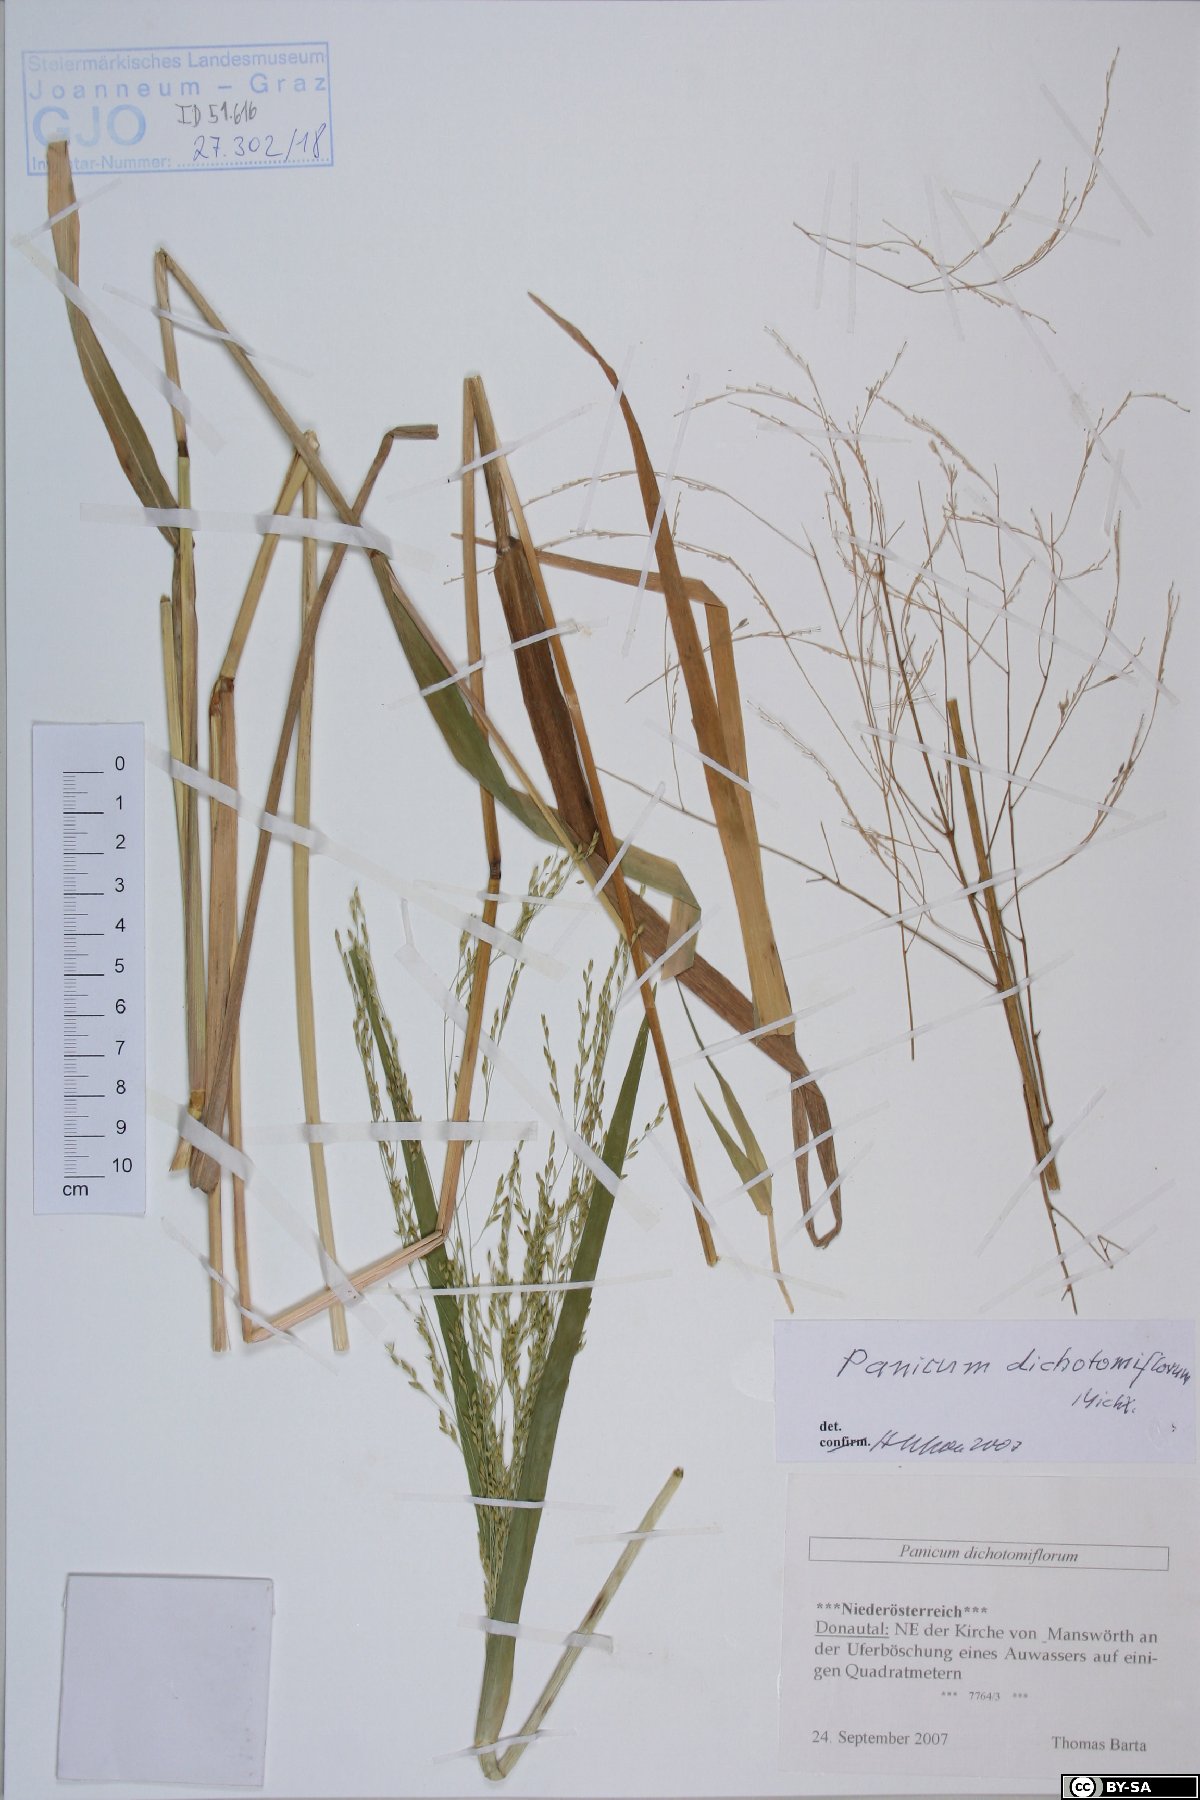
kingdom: Plantae
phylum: Tracheophyta
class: Liliopsida
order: Poales
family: Poaceae
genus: Panicum
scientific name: Panicum dichotomiflorum
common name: Autumn millet
